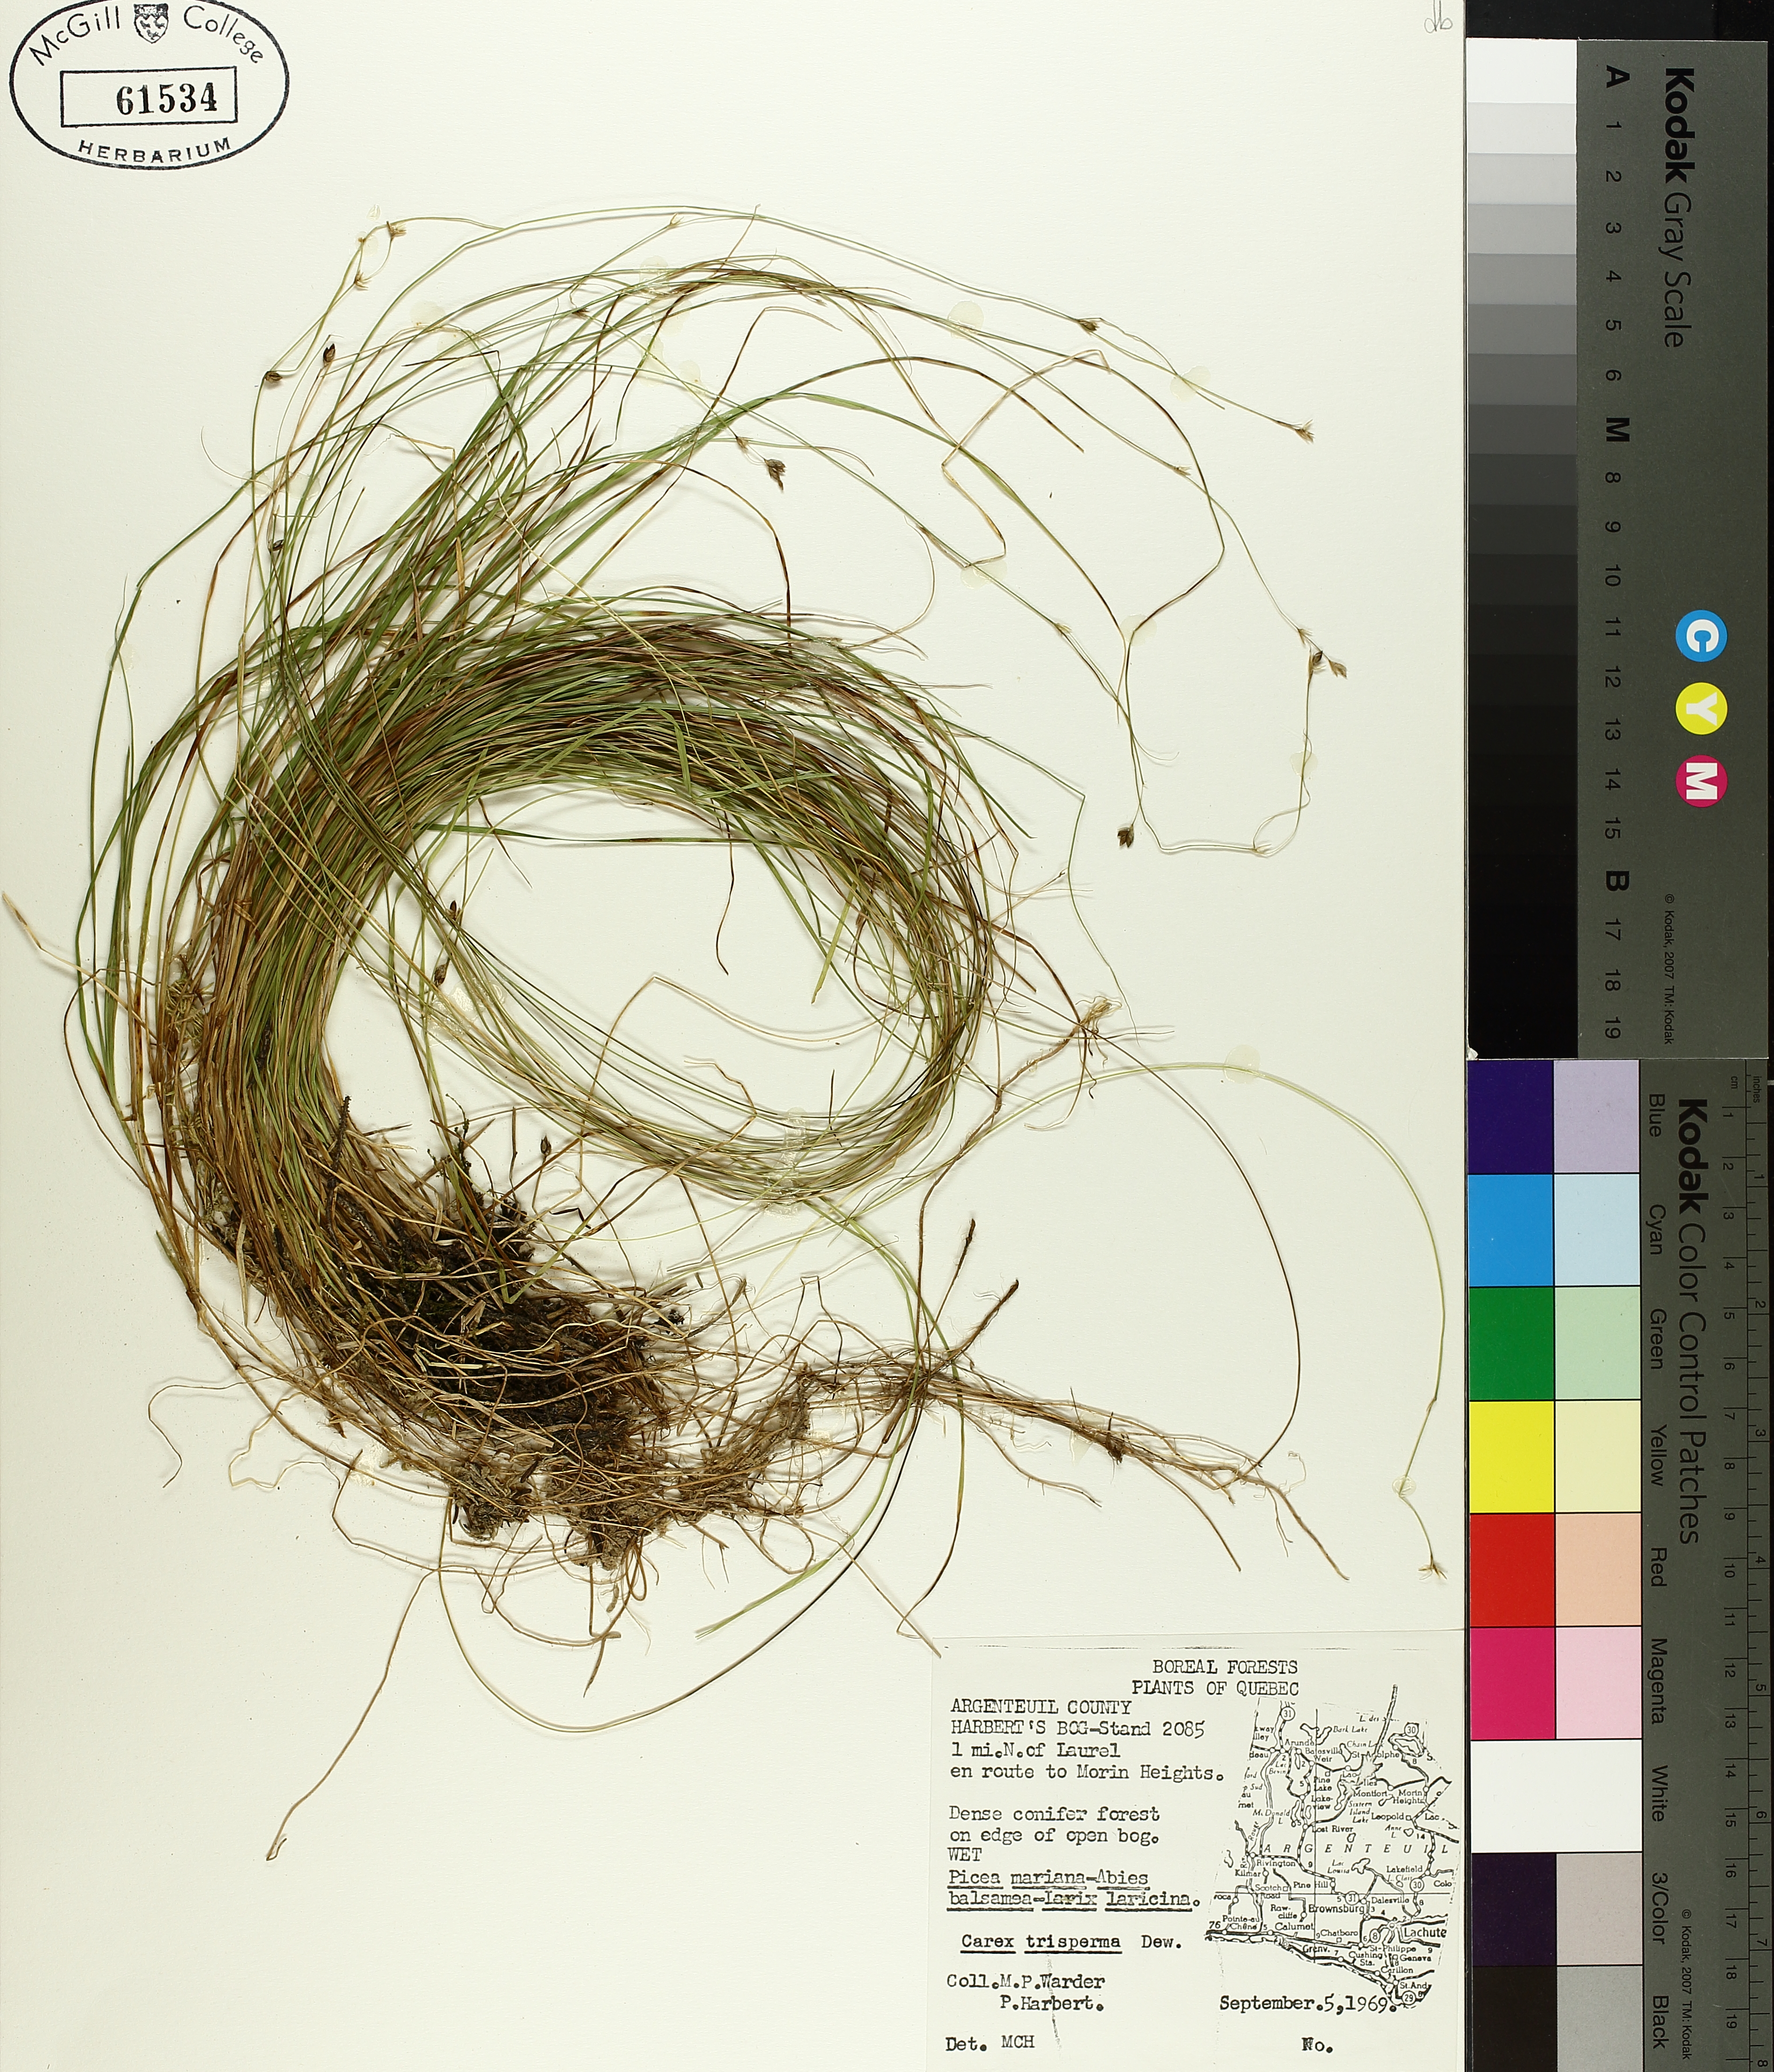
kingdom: Plantae
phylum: Tracheophyta
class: Liliopsida
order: Poales
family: Cyperaceae
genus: Carex
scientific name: Carex trisperma
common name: Three-seeded sedge
